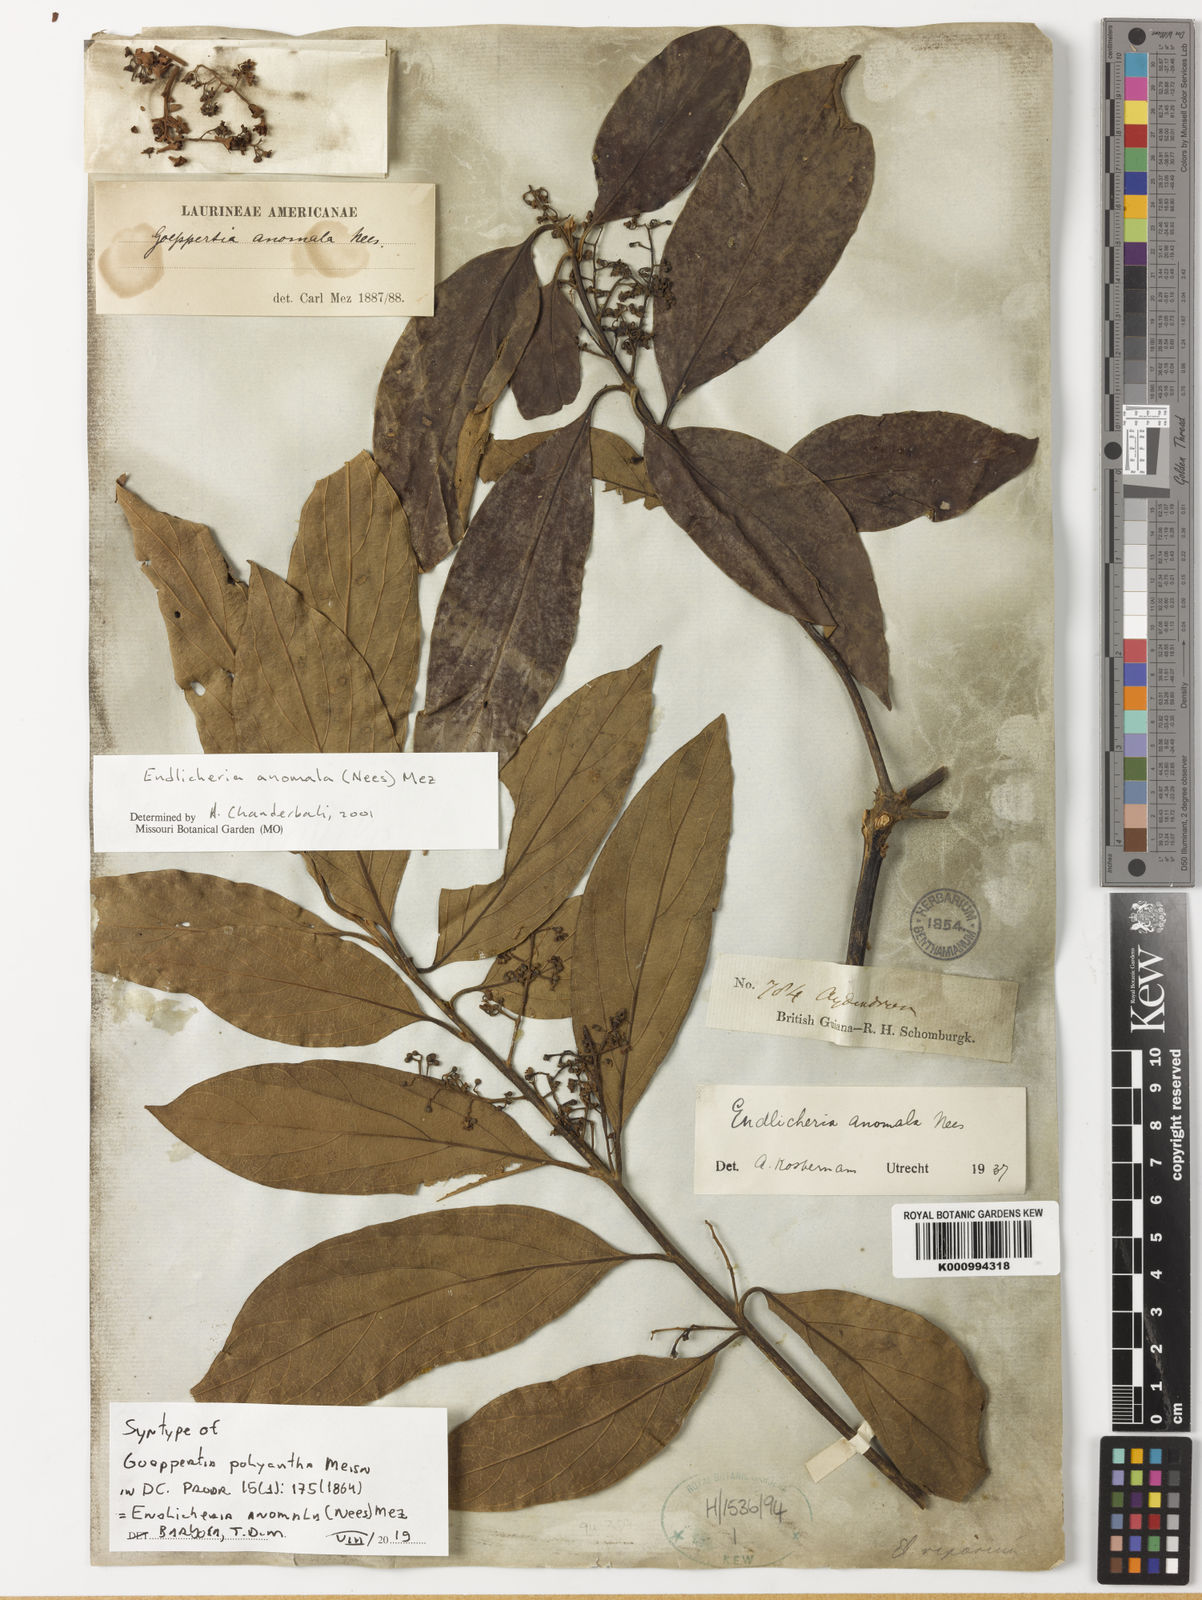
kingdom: Plantae
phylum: Tracheophyta
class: Magnoliopsida
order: Laurales
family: Lauraceae
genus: Endlicheria
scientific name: Endlicheria anomala
